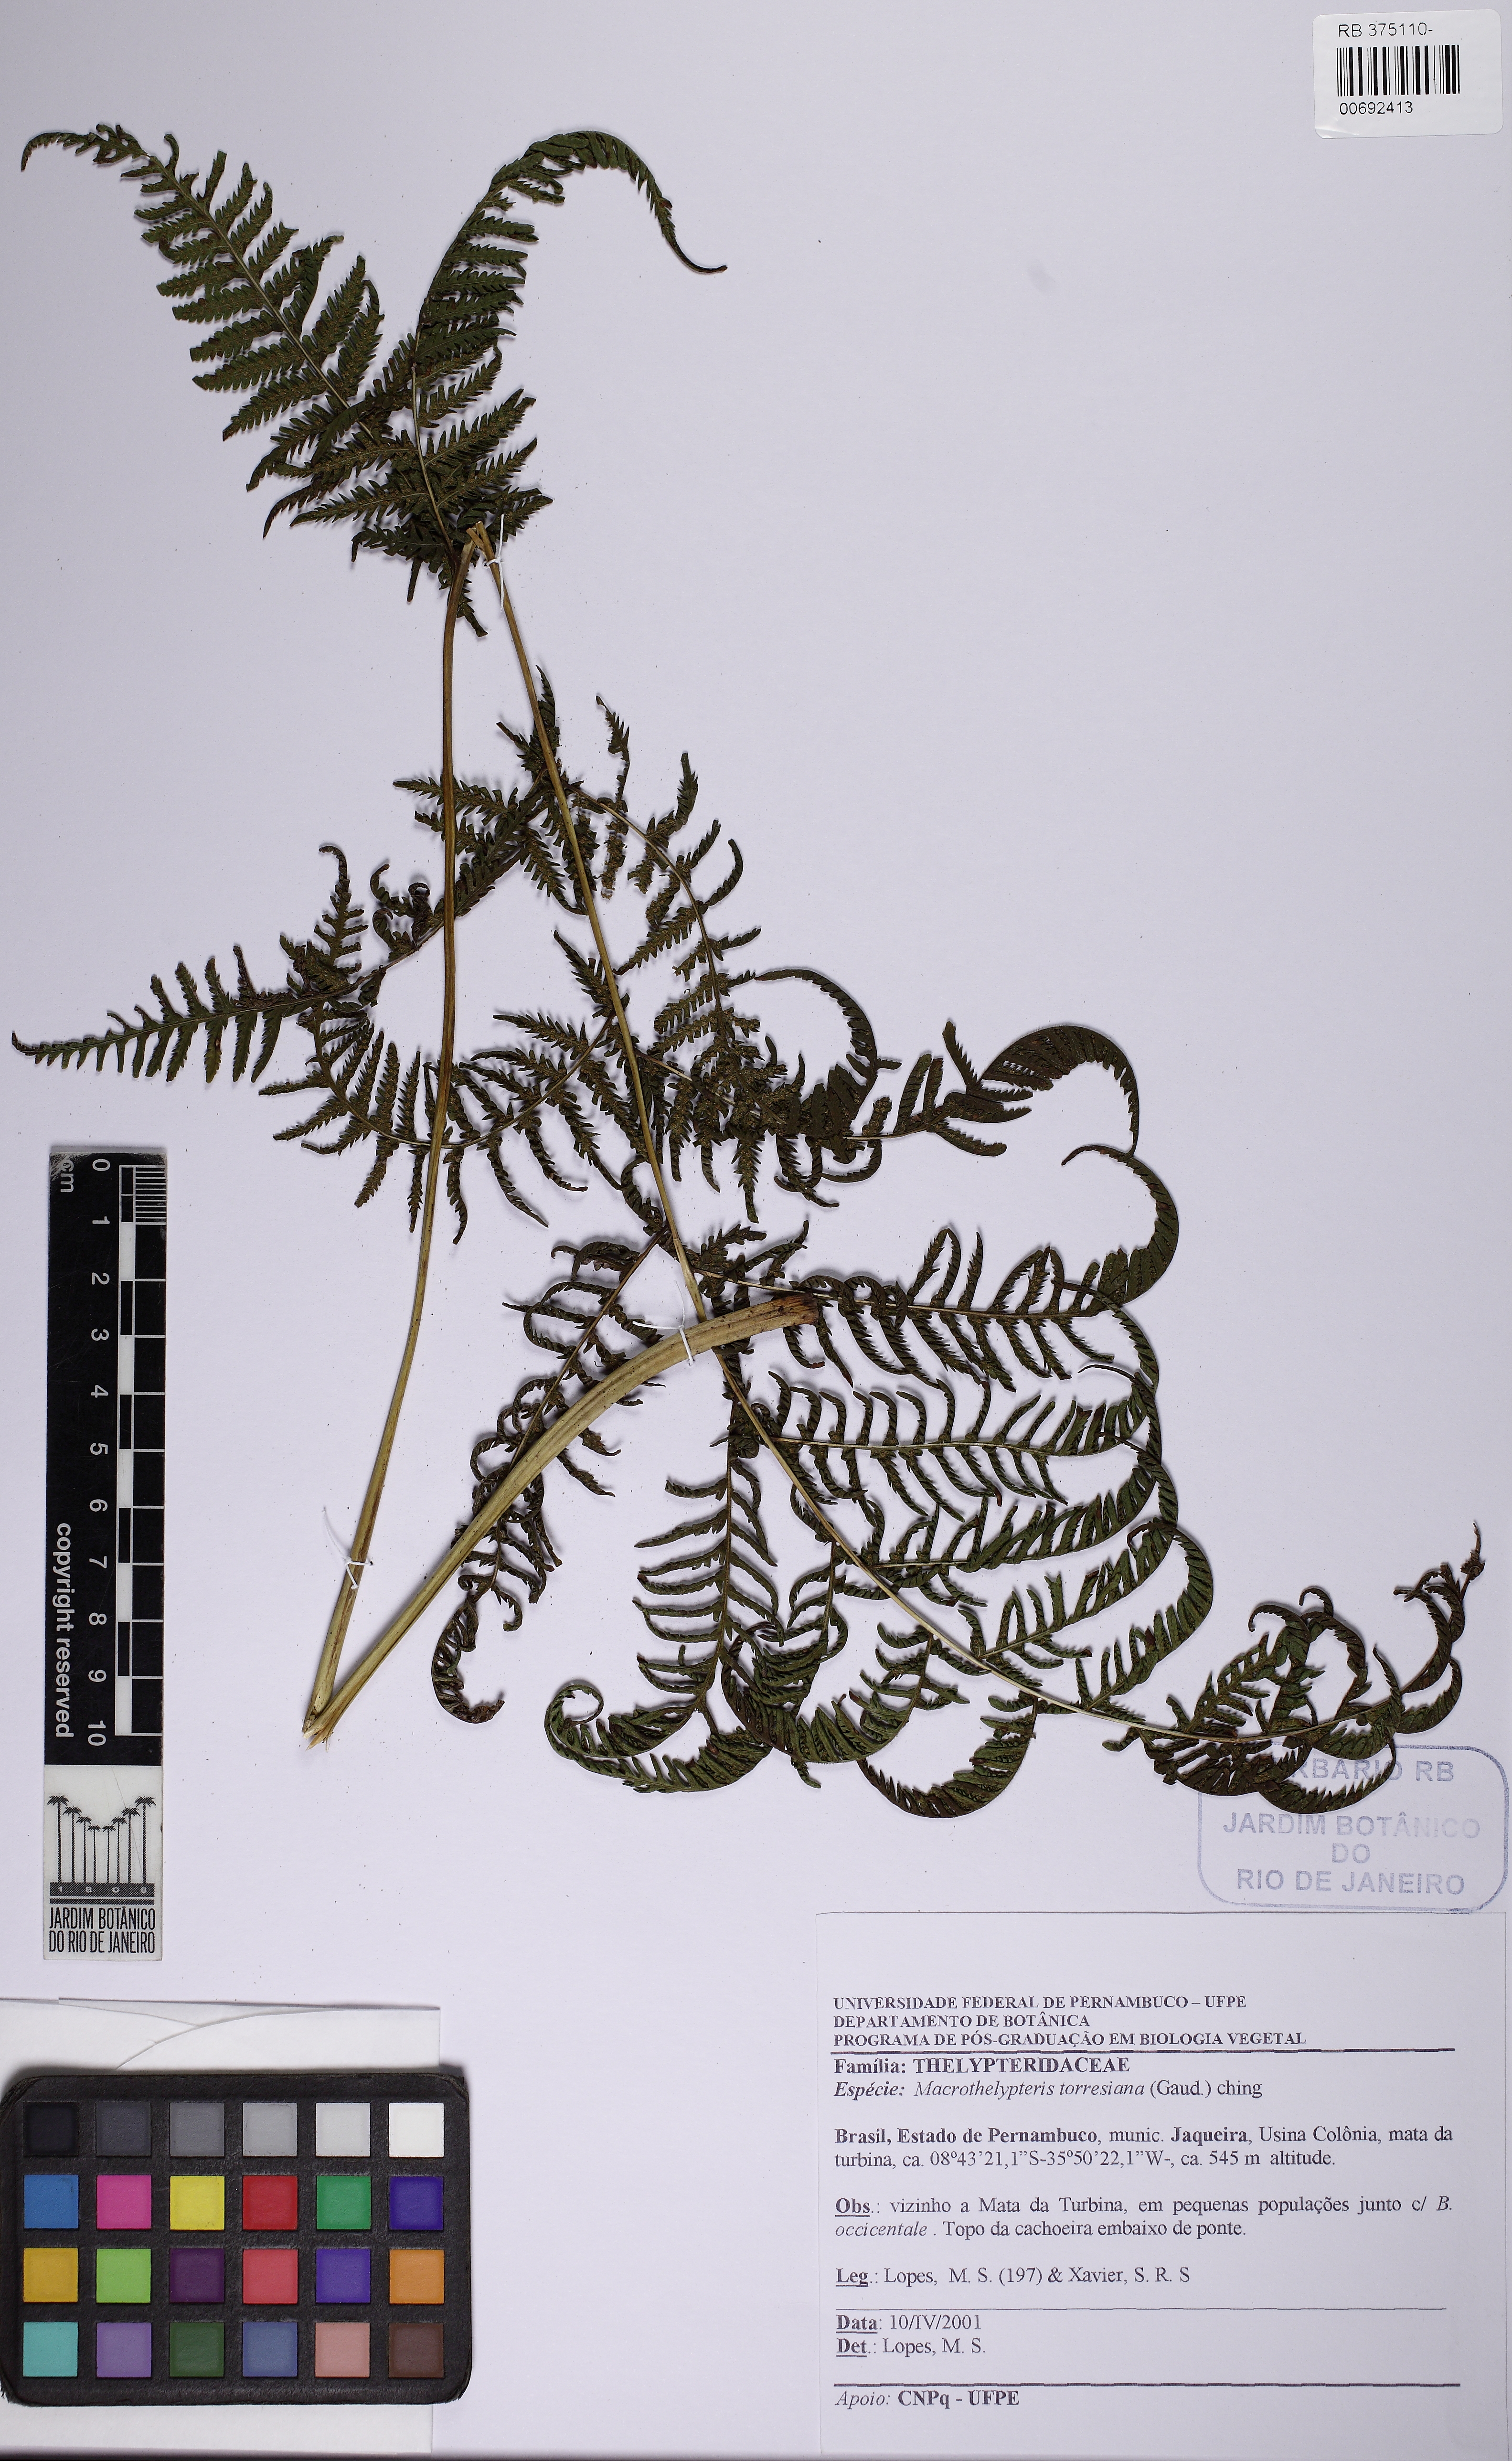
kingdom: Plantae
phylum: Tracheophyta
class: Polypodiopsida
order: Polypodiales
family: Thelypteridaceae
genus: Macrothelypteris
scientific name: Macrothelypteris torresiana
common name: Swordfern
